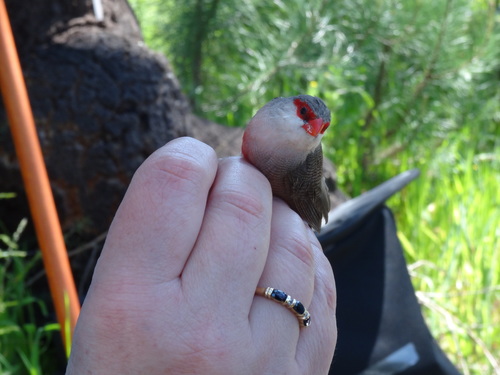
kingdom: Animalia
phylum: Chordata
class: Aves
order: Passeriformes
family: Estrildidae
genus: Estrilda
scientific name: Estrilda astrild
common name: Common waxbill
